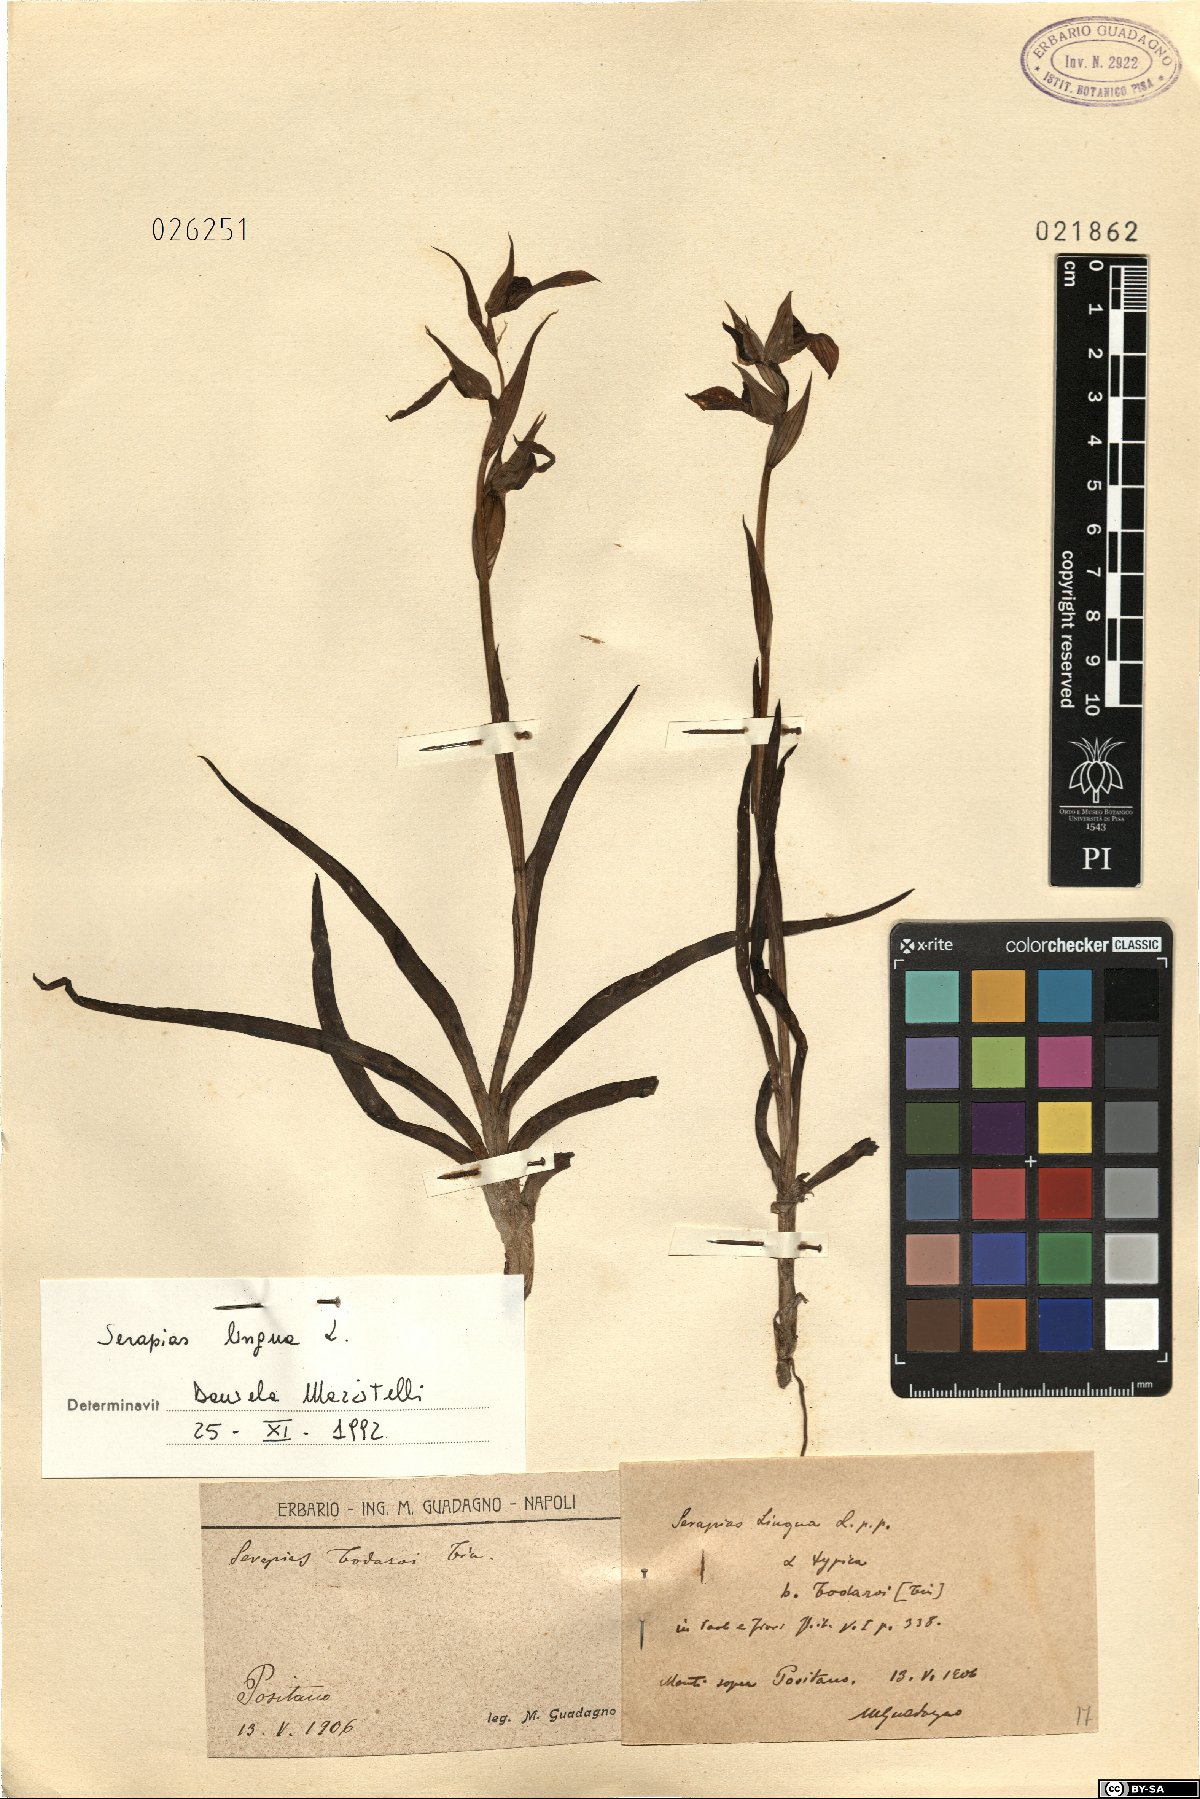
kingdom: Plantae
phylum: Tracheophyta
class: Liliopsida
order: Asparagales
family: Orchidaceae
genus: Serapias
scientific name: Serapias lingua
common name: Tongue-orchid
